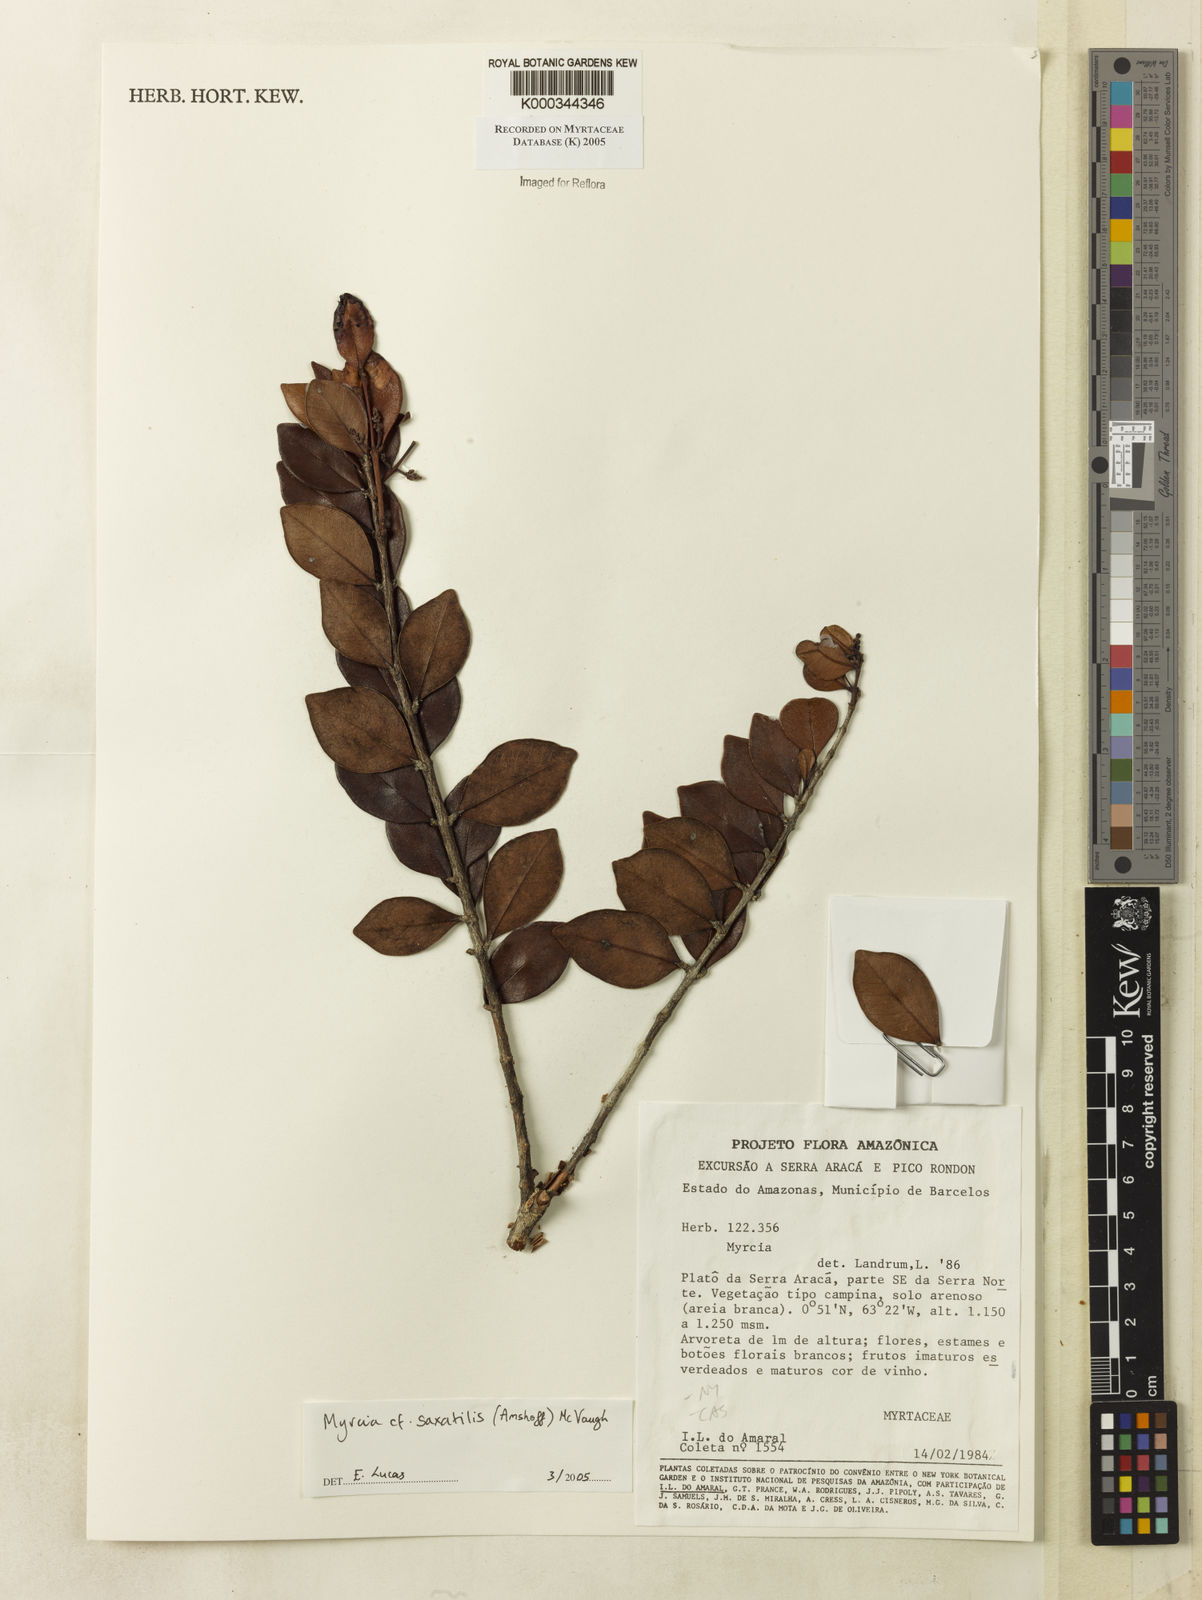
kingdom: Plantae
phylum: Tracheophyta
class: Magnoliopsida
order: Myrtales
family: Myrtaceae
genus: Myrcia
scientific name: Myrcia saxatilis
